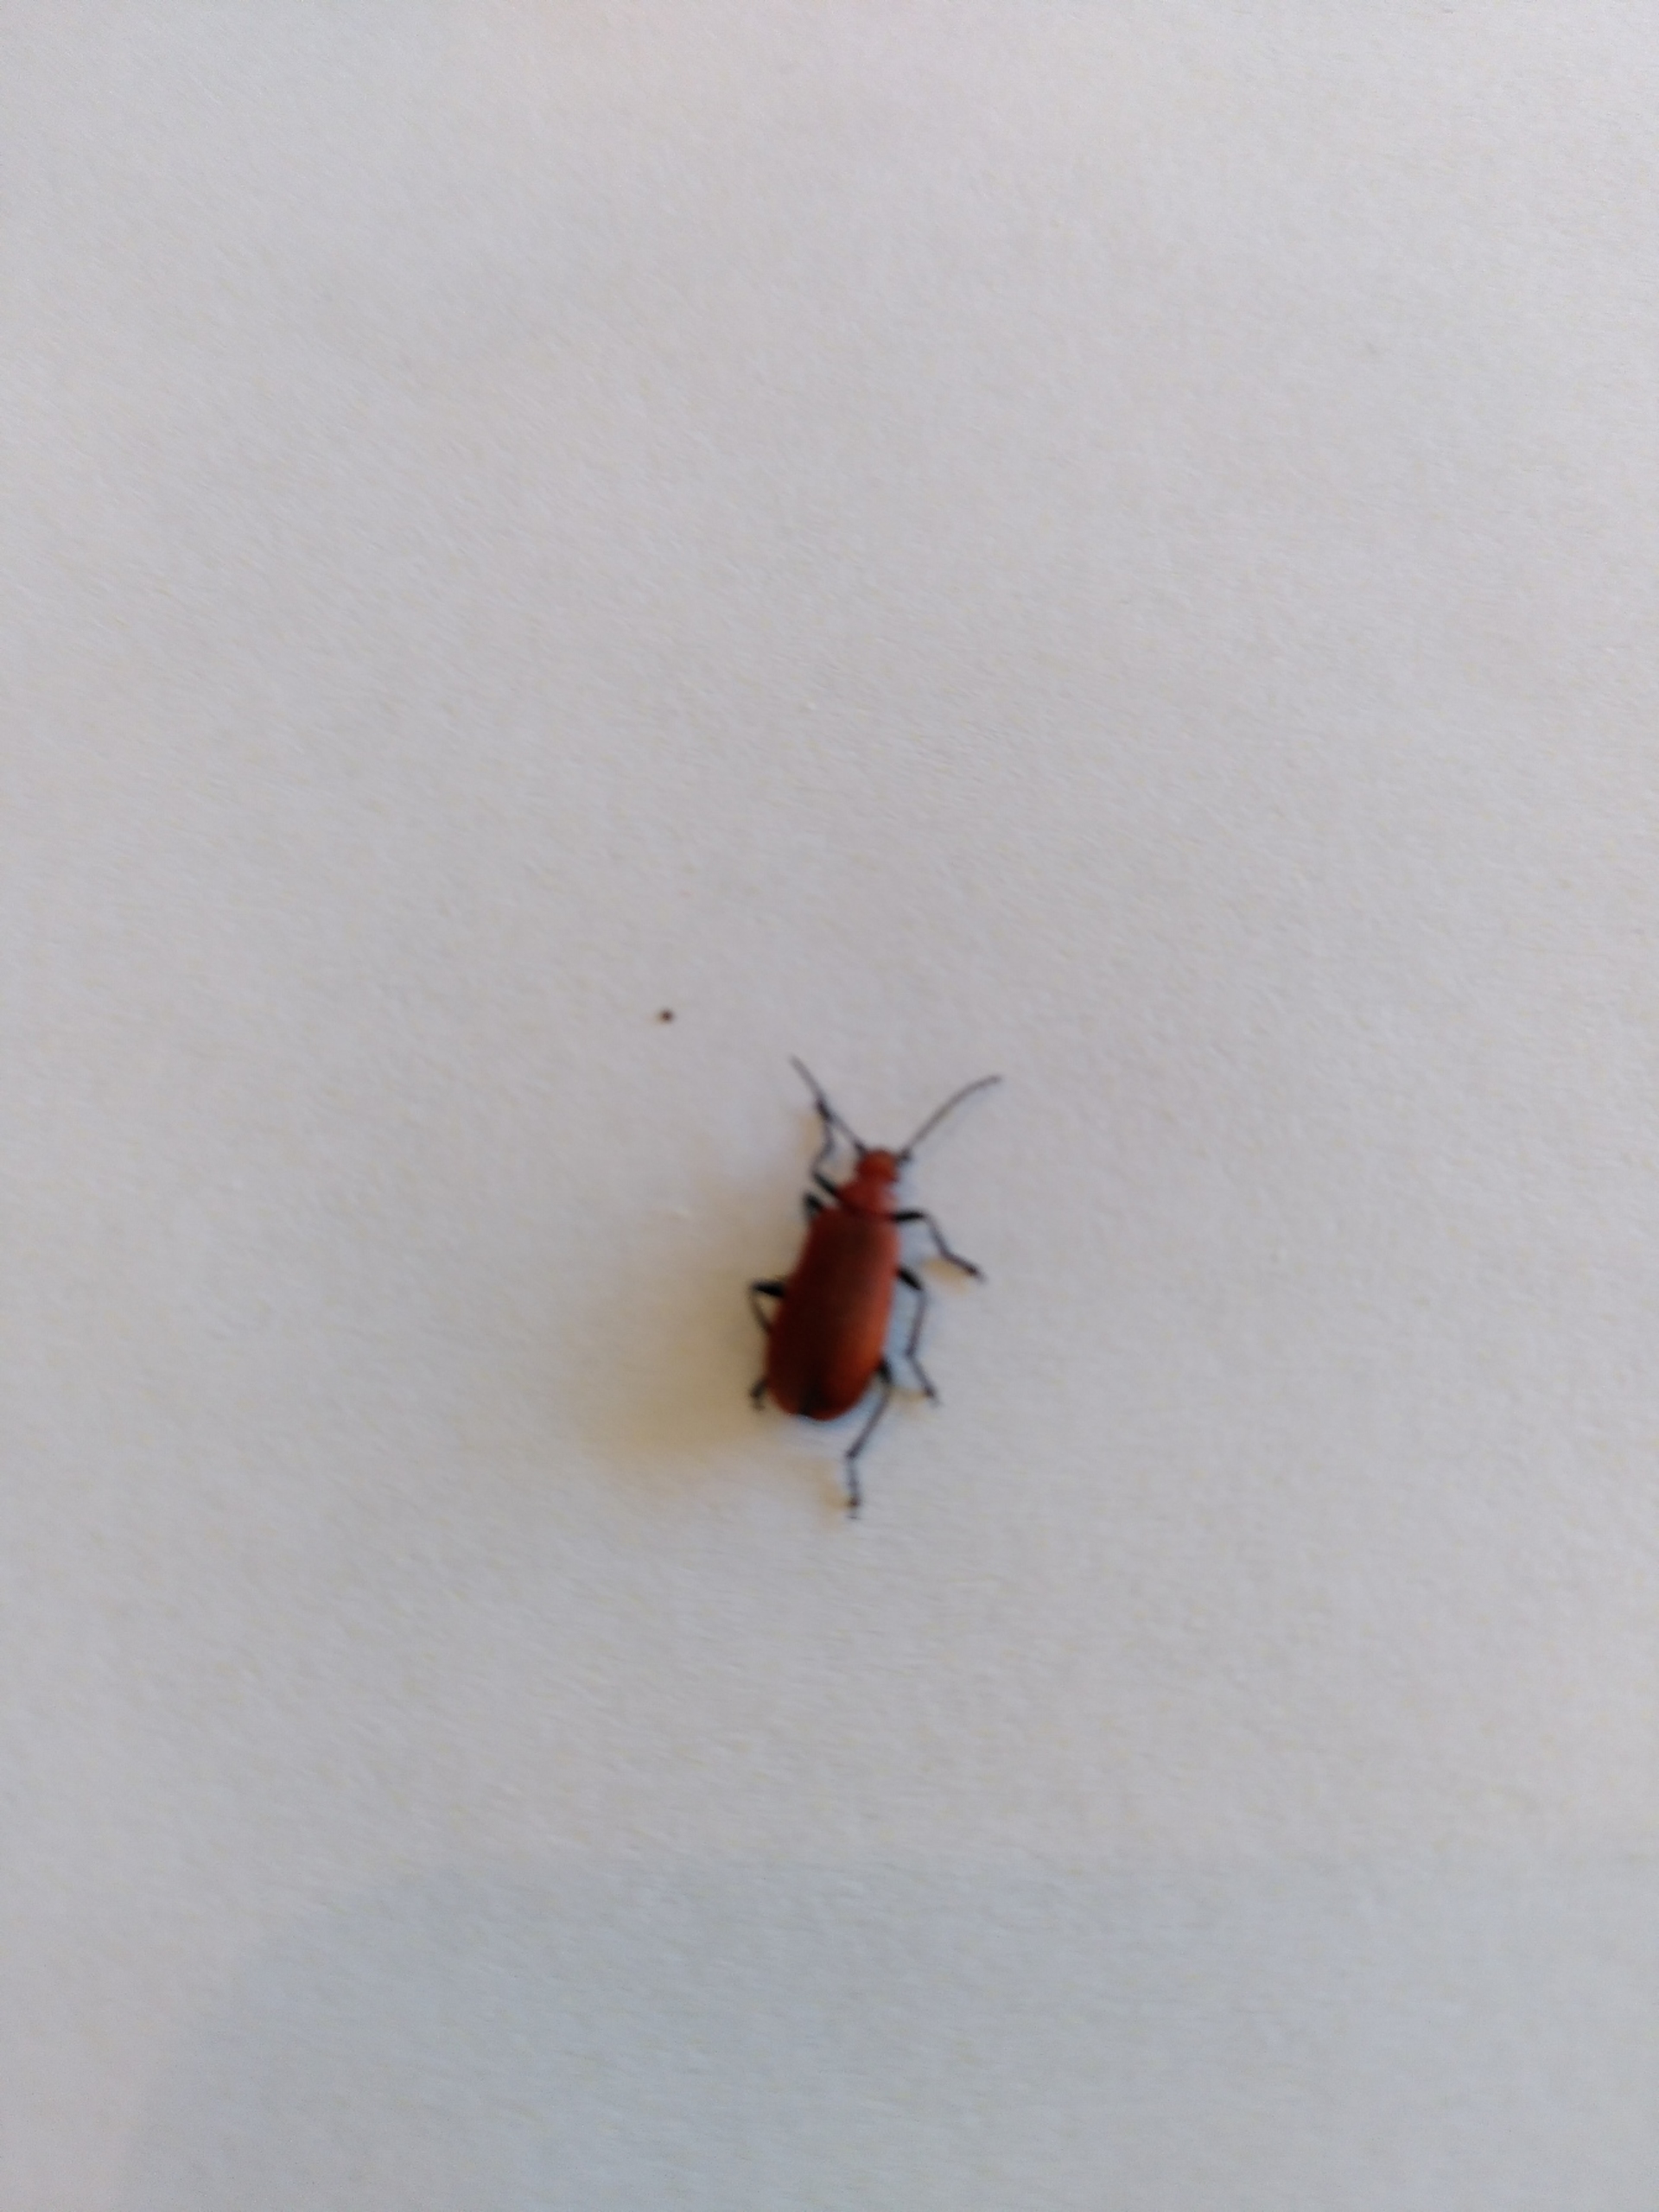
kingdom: Animalia
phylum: Arthropoda
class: Insecta
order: Coleoptera
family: Pyrochroidae
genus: Pyrochroa
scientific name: Pyrochroa serraticornis
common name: Rødhovedet kardinalbille
